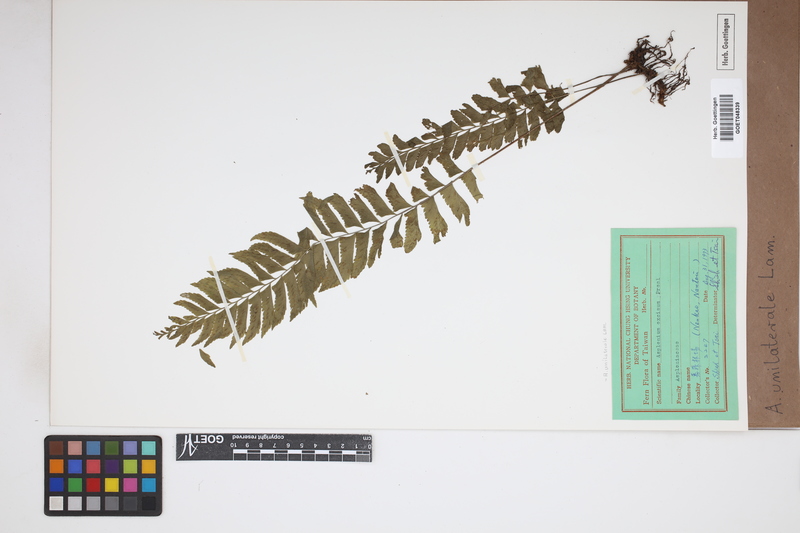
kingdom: Plantae
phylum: Tracheophyta
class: Polypodiopsida
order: Polypodiales
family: Aspleniaceae
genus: Hymenasplenium
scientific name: Hymenasplenium unilaterale
